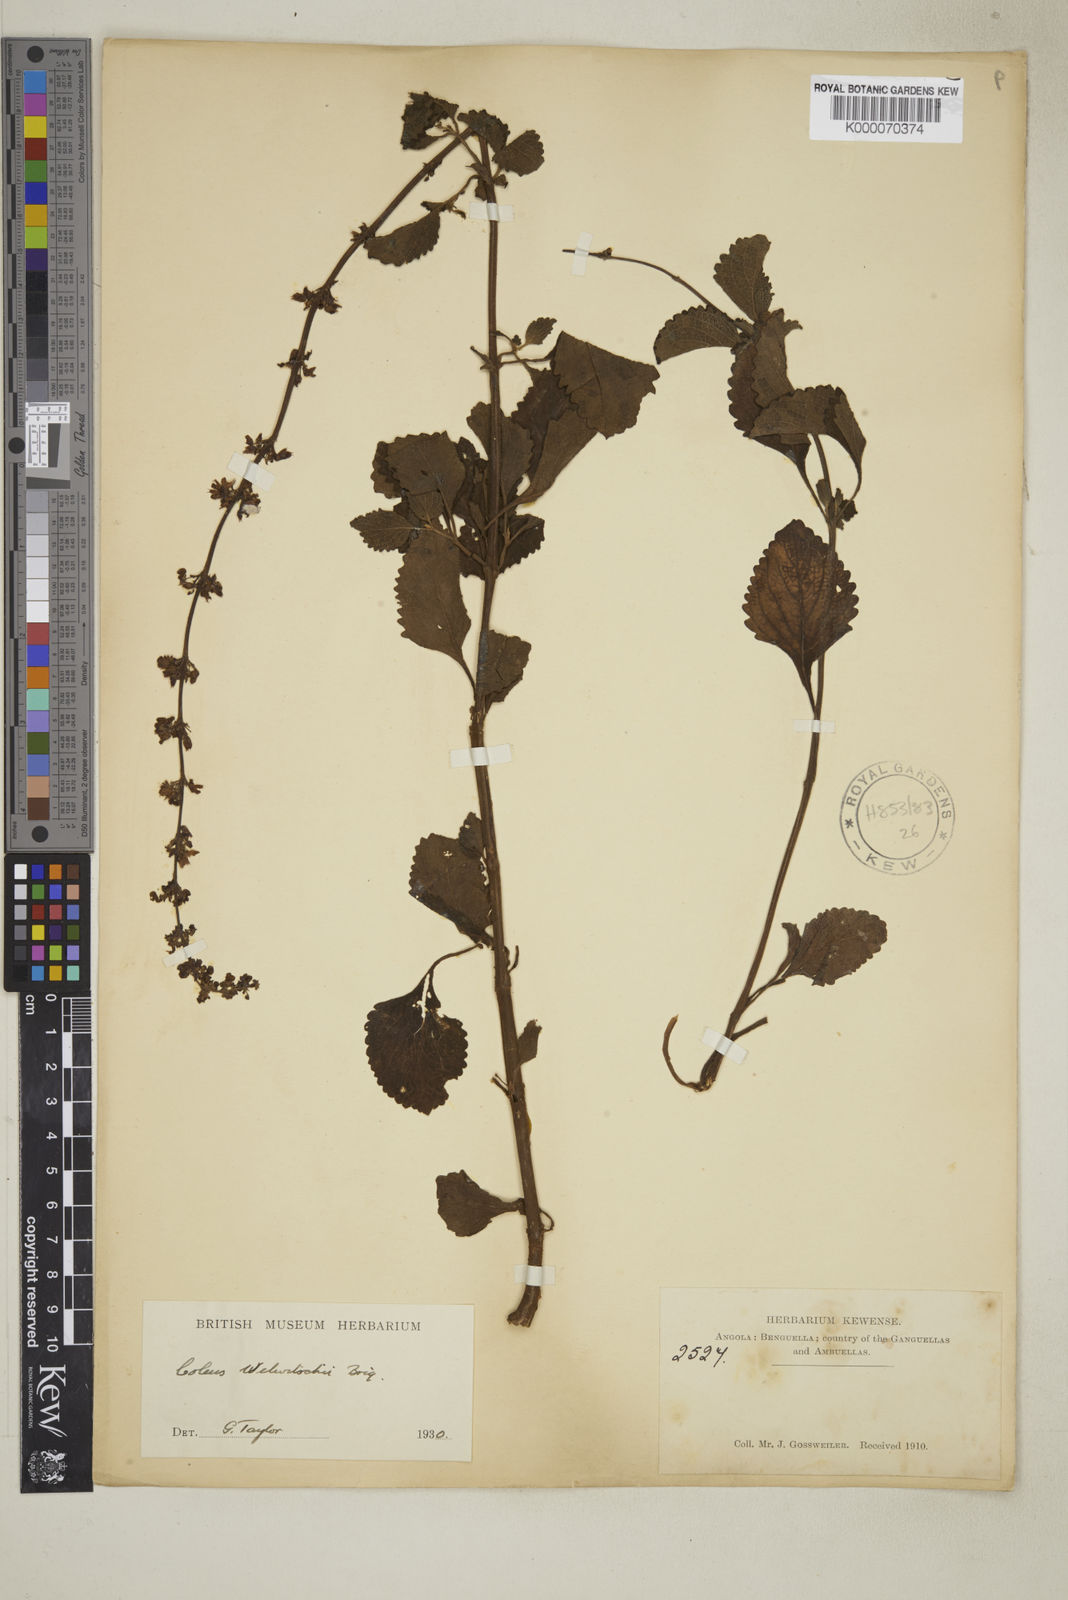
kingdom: Plantae
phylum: Tracheophyta
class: Magnoliopsida
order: Lamiales
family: Lamiaceae
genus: Coleus
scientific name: Coleus welwitschii
